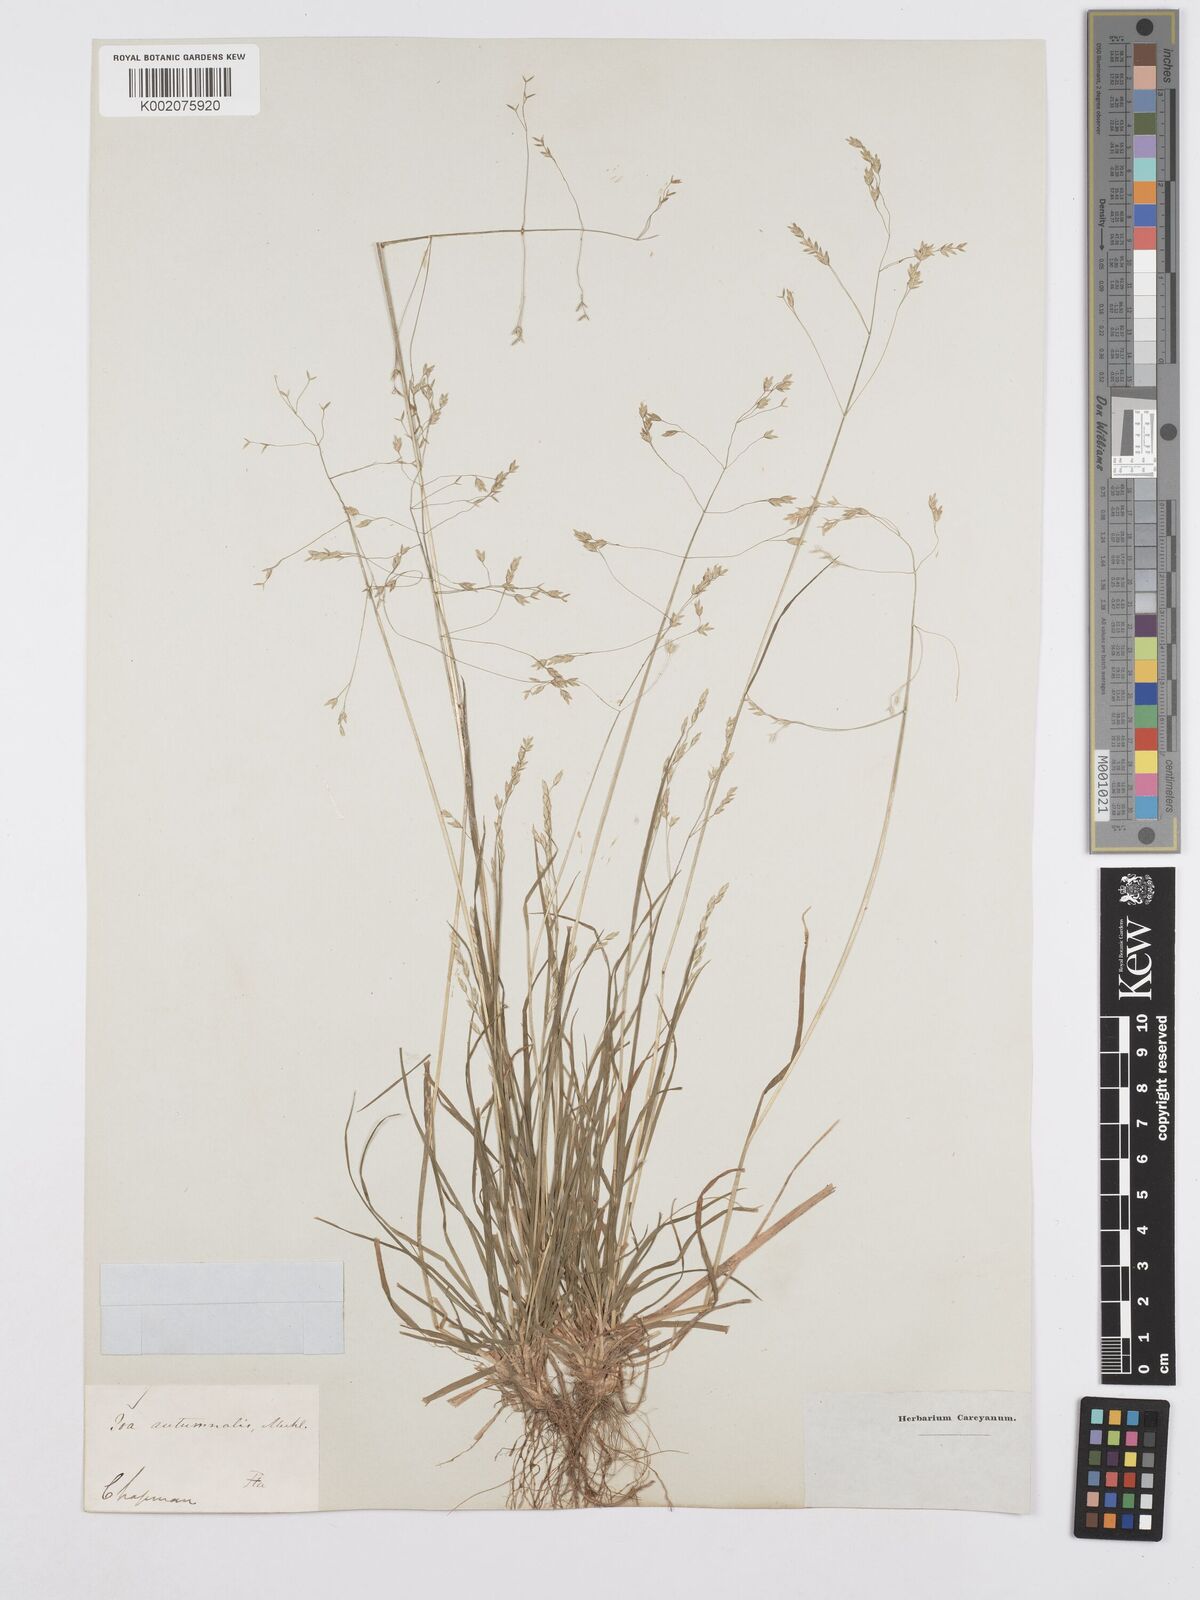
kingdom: Plantae
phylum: Tracheophyta
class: Liliopsida
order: Poales
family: Poaceae
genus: Poa
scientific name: Poa autumnalis
